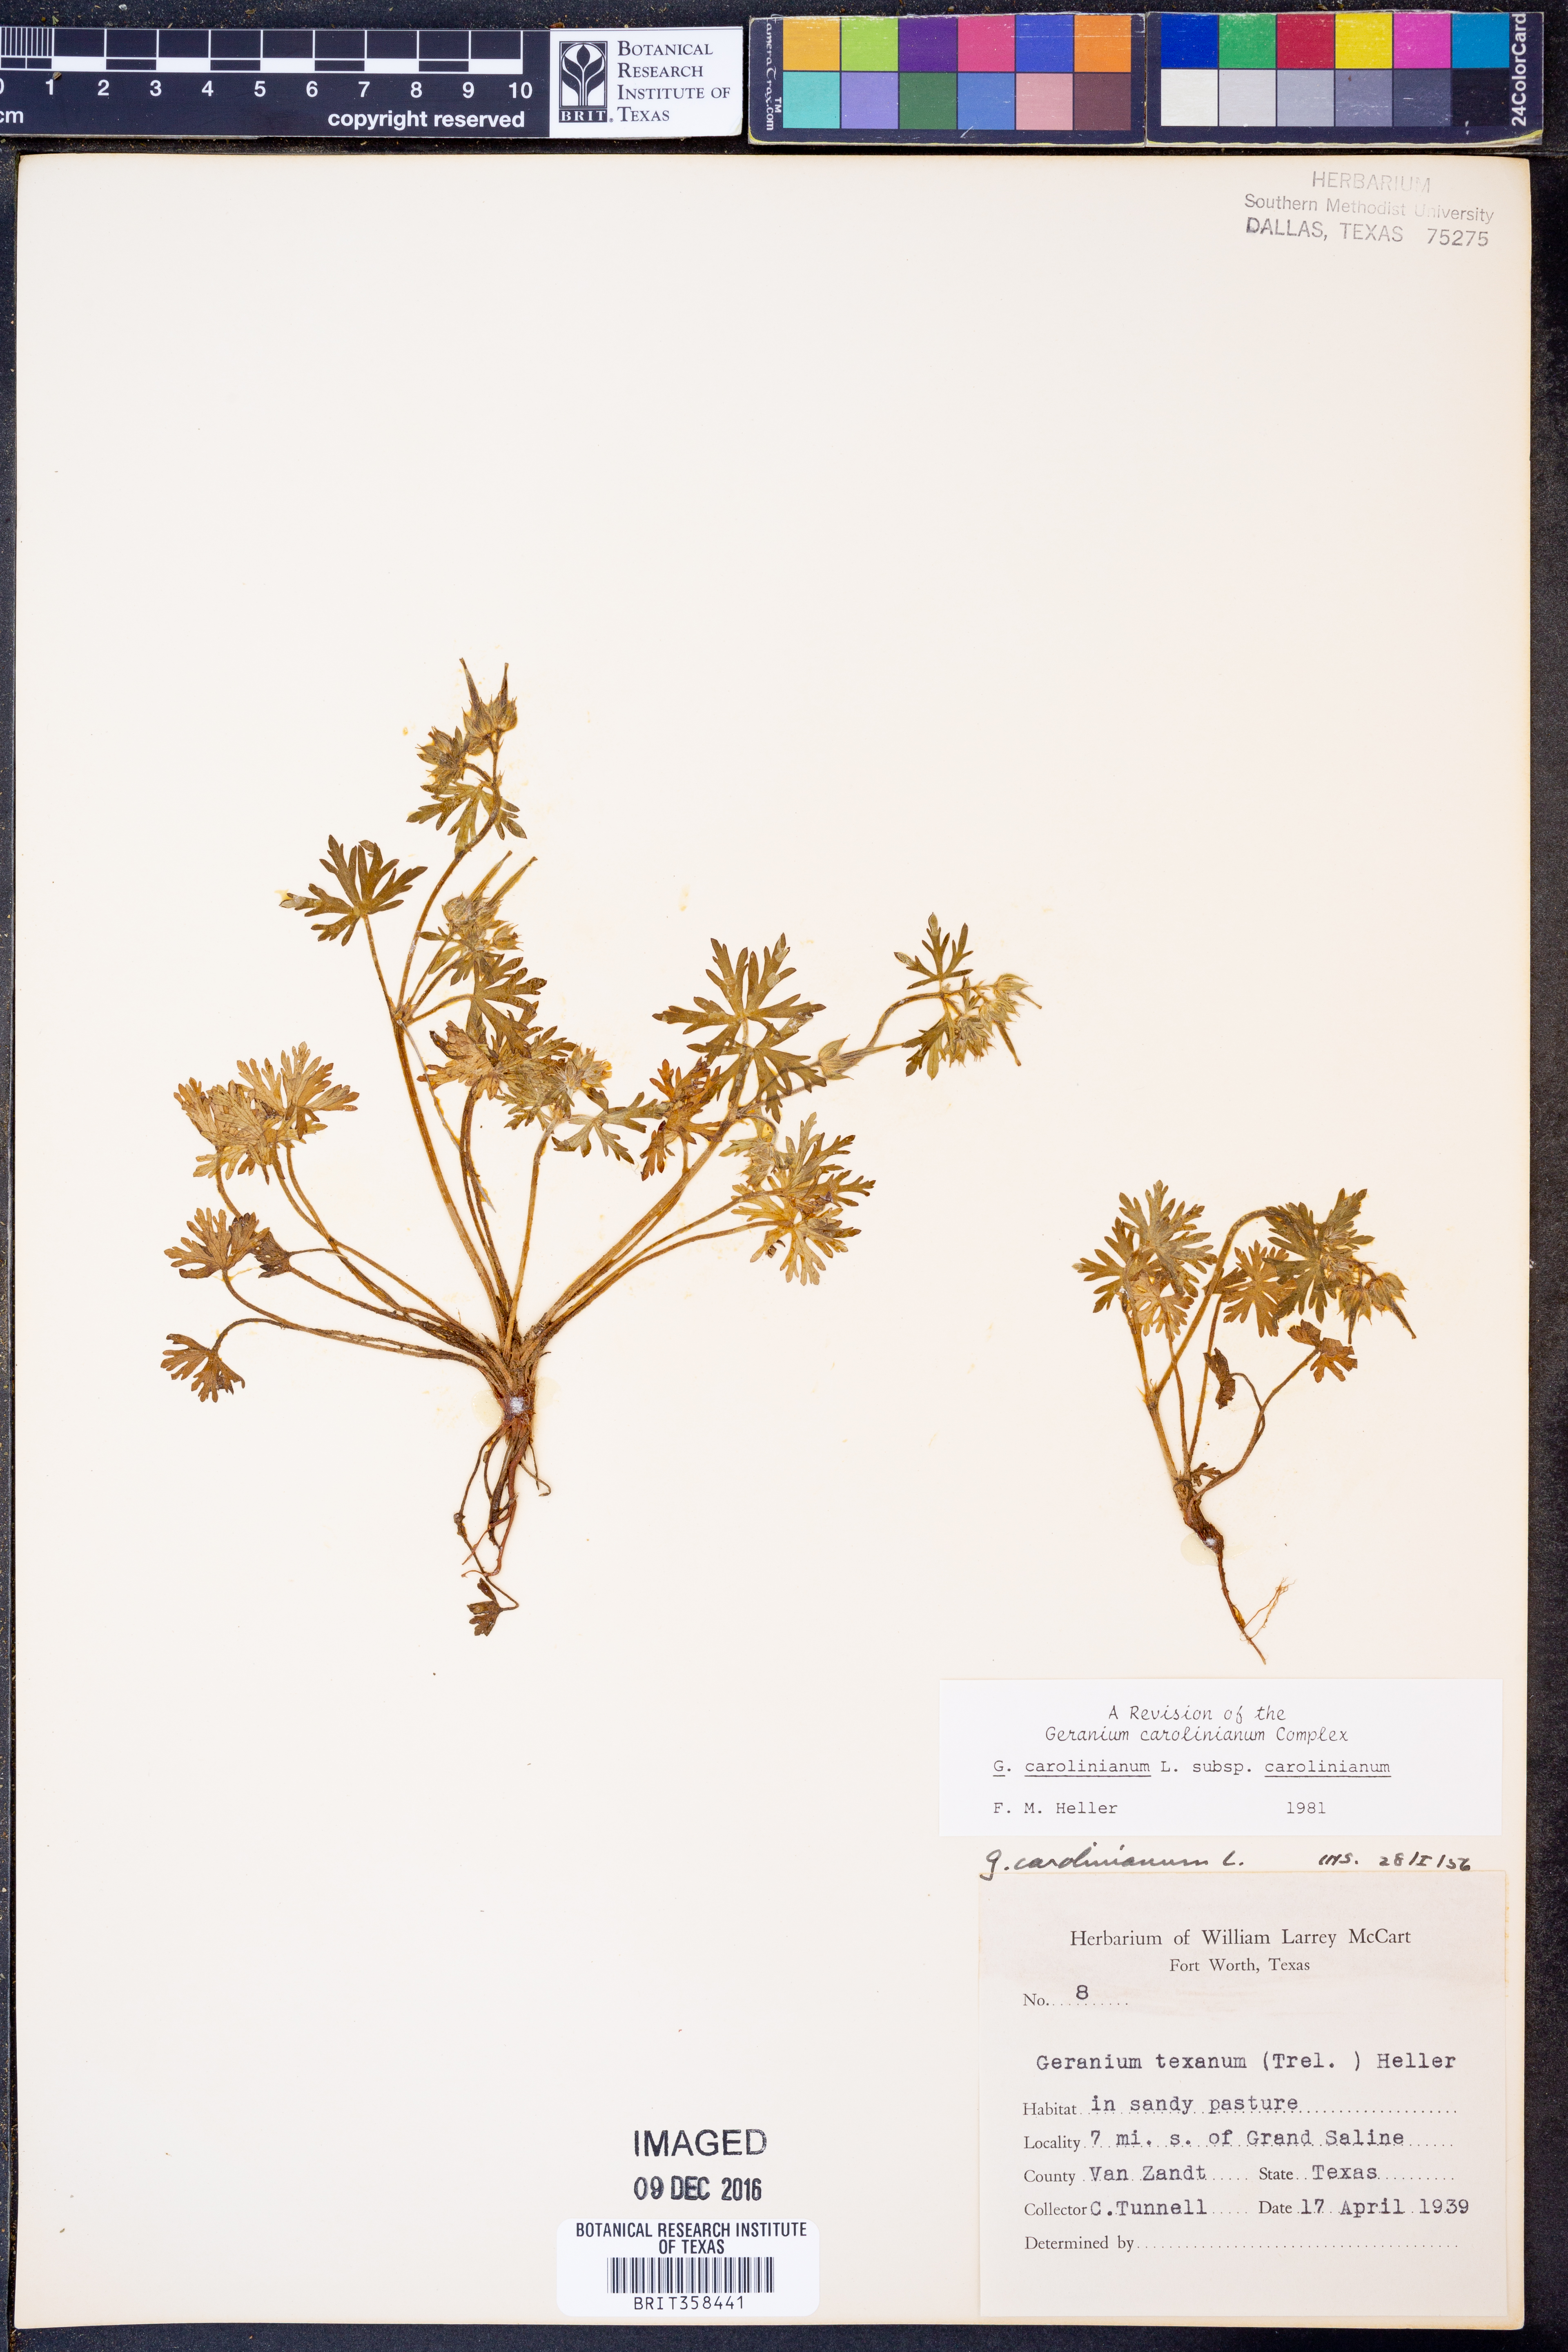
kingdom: Plantae
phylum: Tracheophyta
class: Magnoliopsida
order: Geraniales
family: Geraniaceae
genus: Geranium
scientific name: Geranium carolinianum
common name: Carolina crane's-bill
